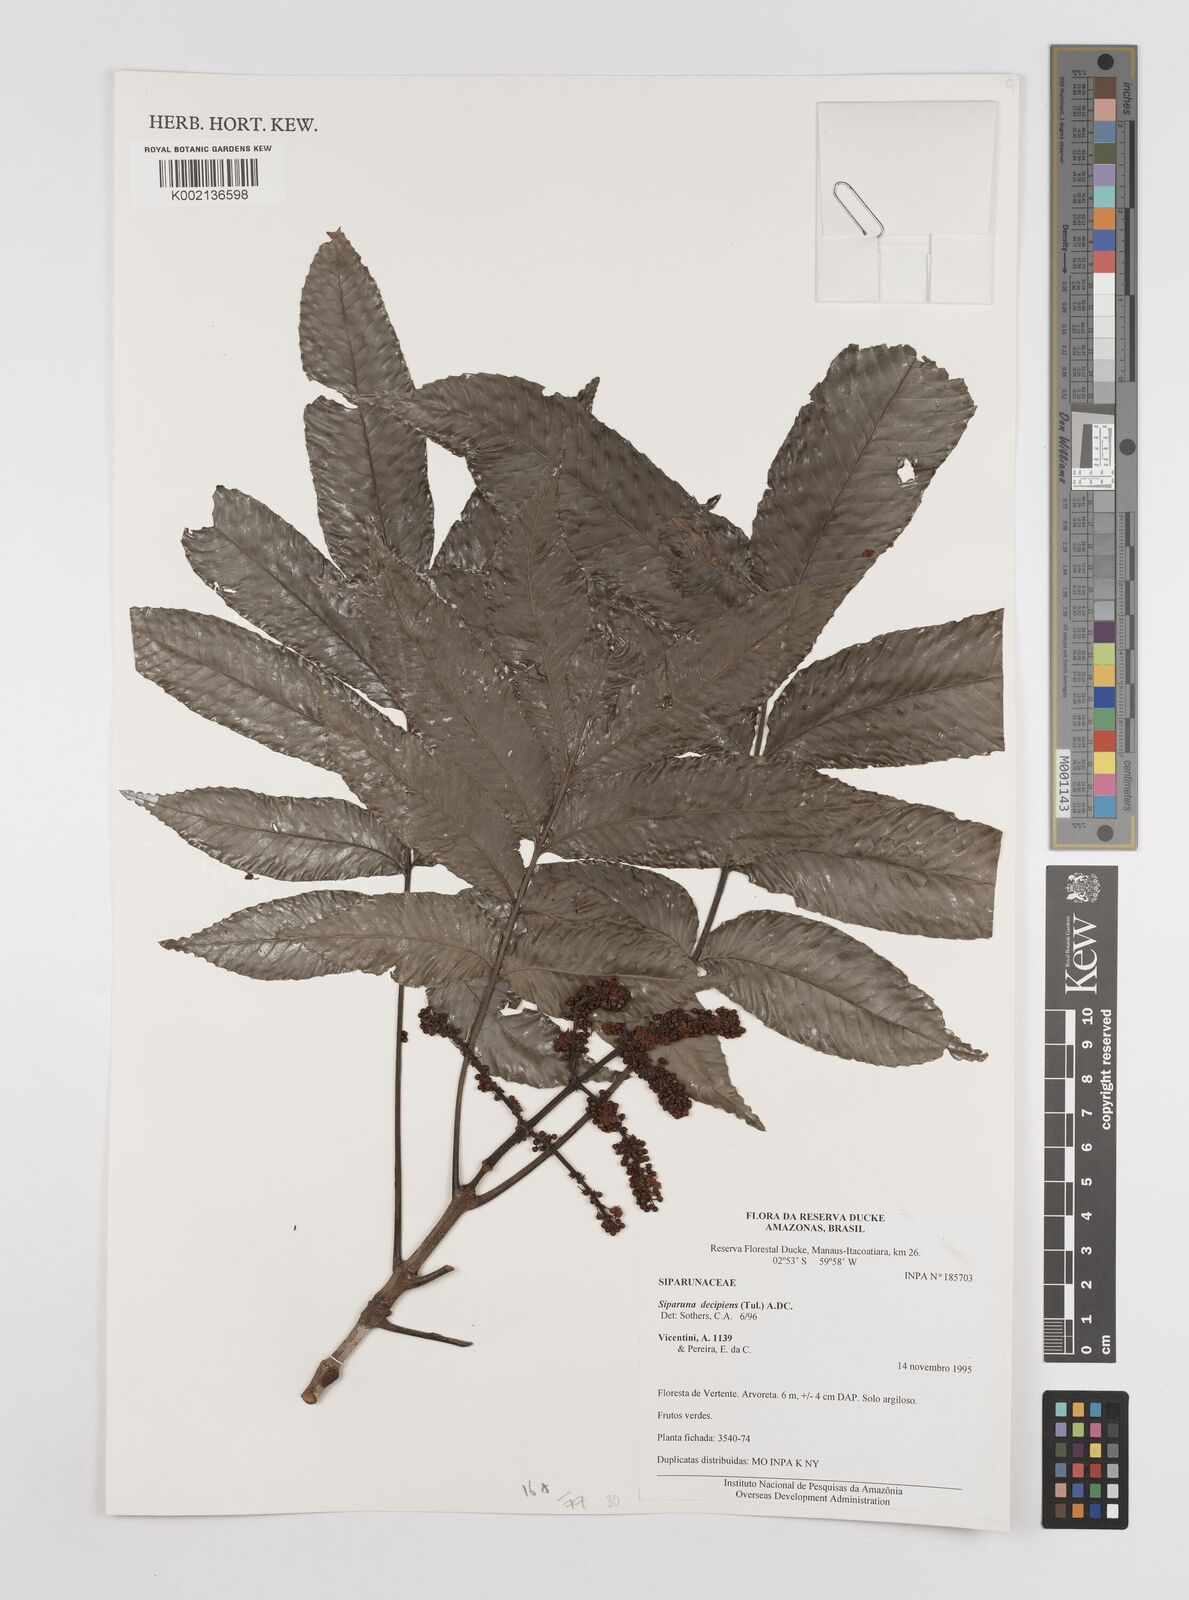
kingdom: Plantae
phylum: Tracheophyta
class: Magnoliopsida
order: Laurales
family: Siparunaceae
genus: Siparuna
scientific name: Siparuna decipiens
